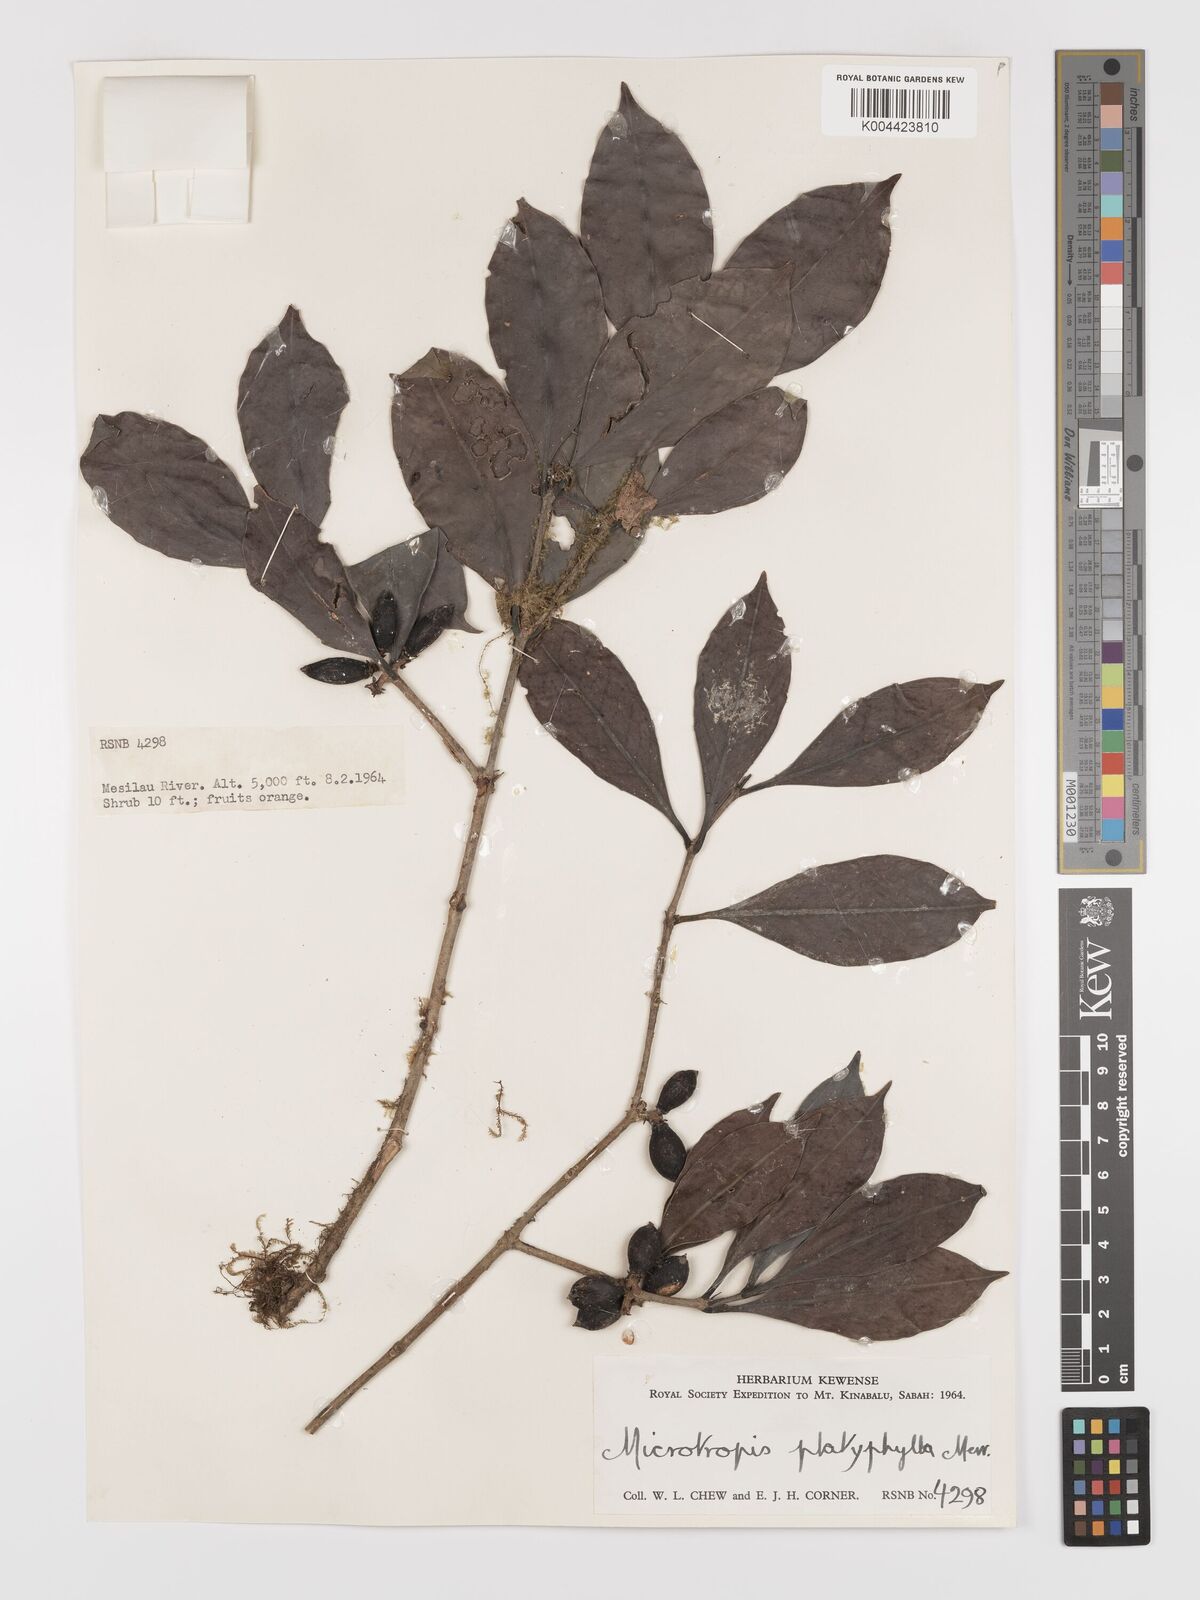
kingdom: Plantae
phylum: Tracheophyta
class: Magnoliopsida
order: Celastrales
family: Celastraceae
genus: Microtropis
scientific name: Microtropis platyphylla
